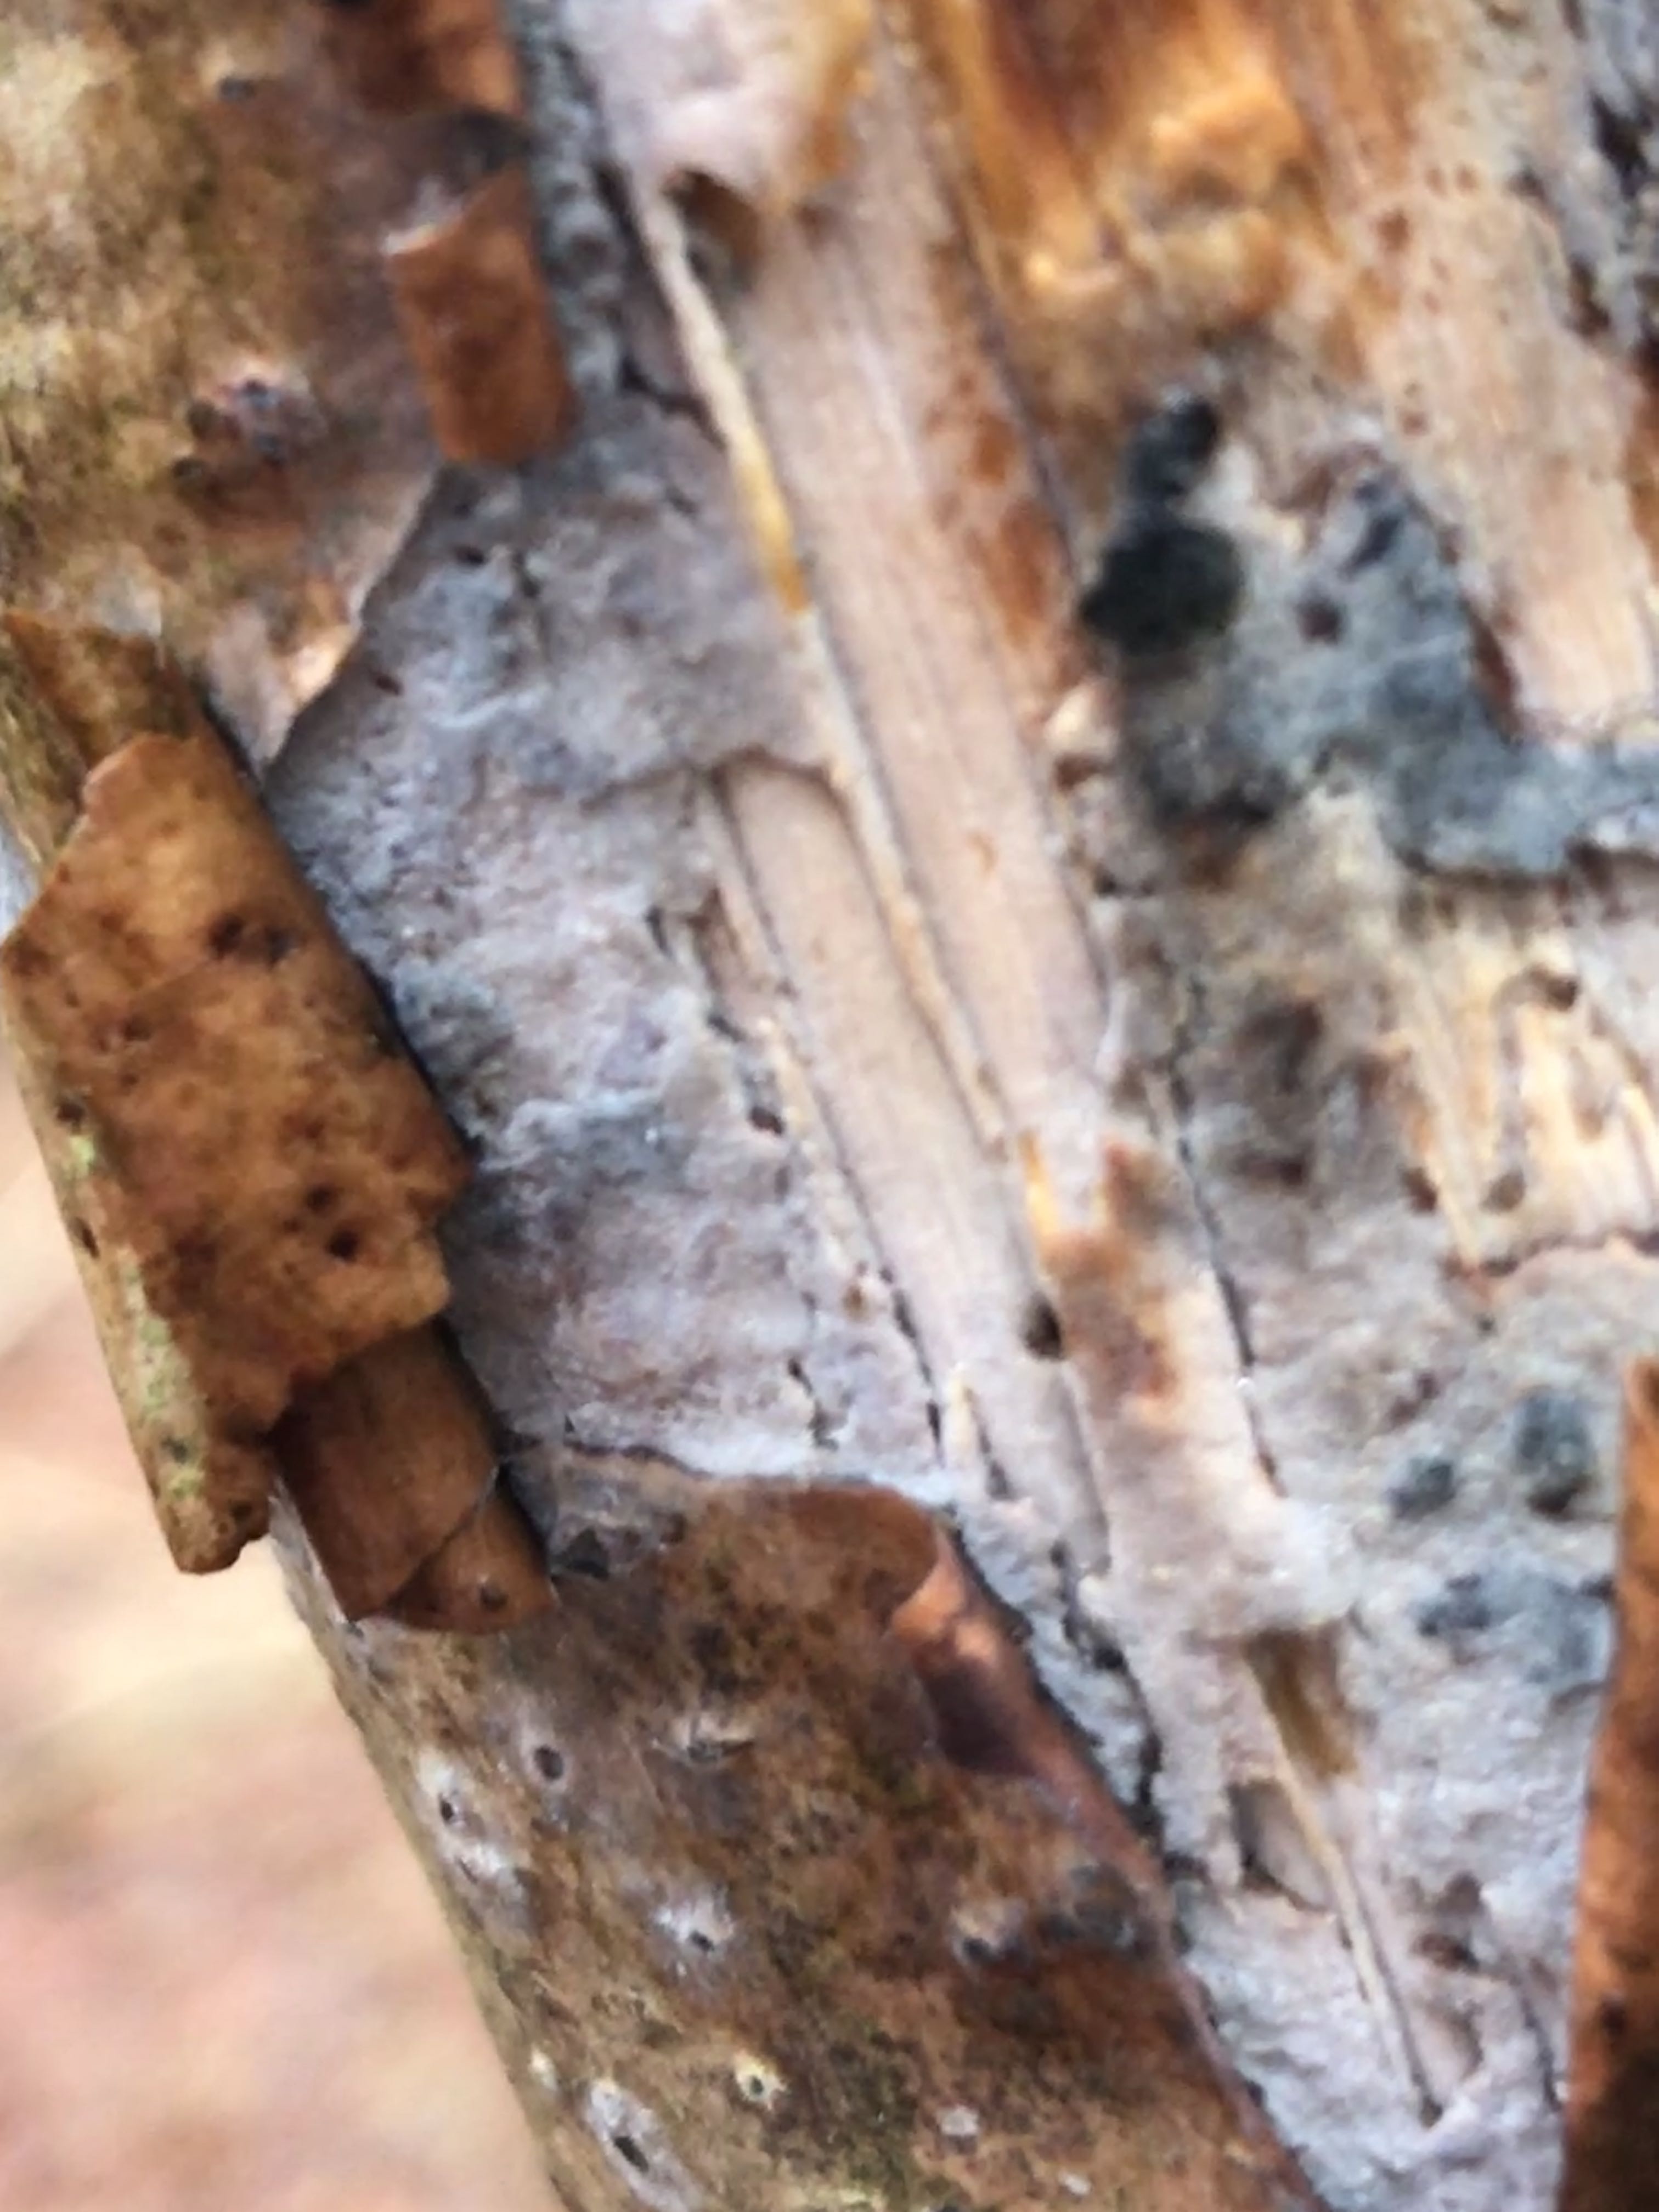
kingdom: Fungi
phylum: Basidiomycota
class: Agaricomycetes
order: Corticiales
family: Corticiaceae
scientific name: Corticiaceae
